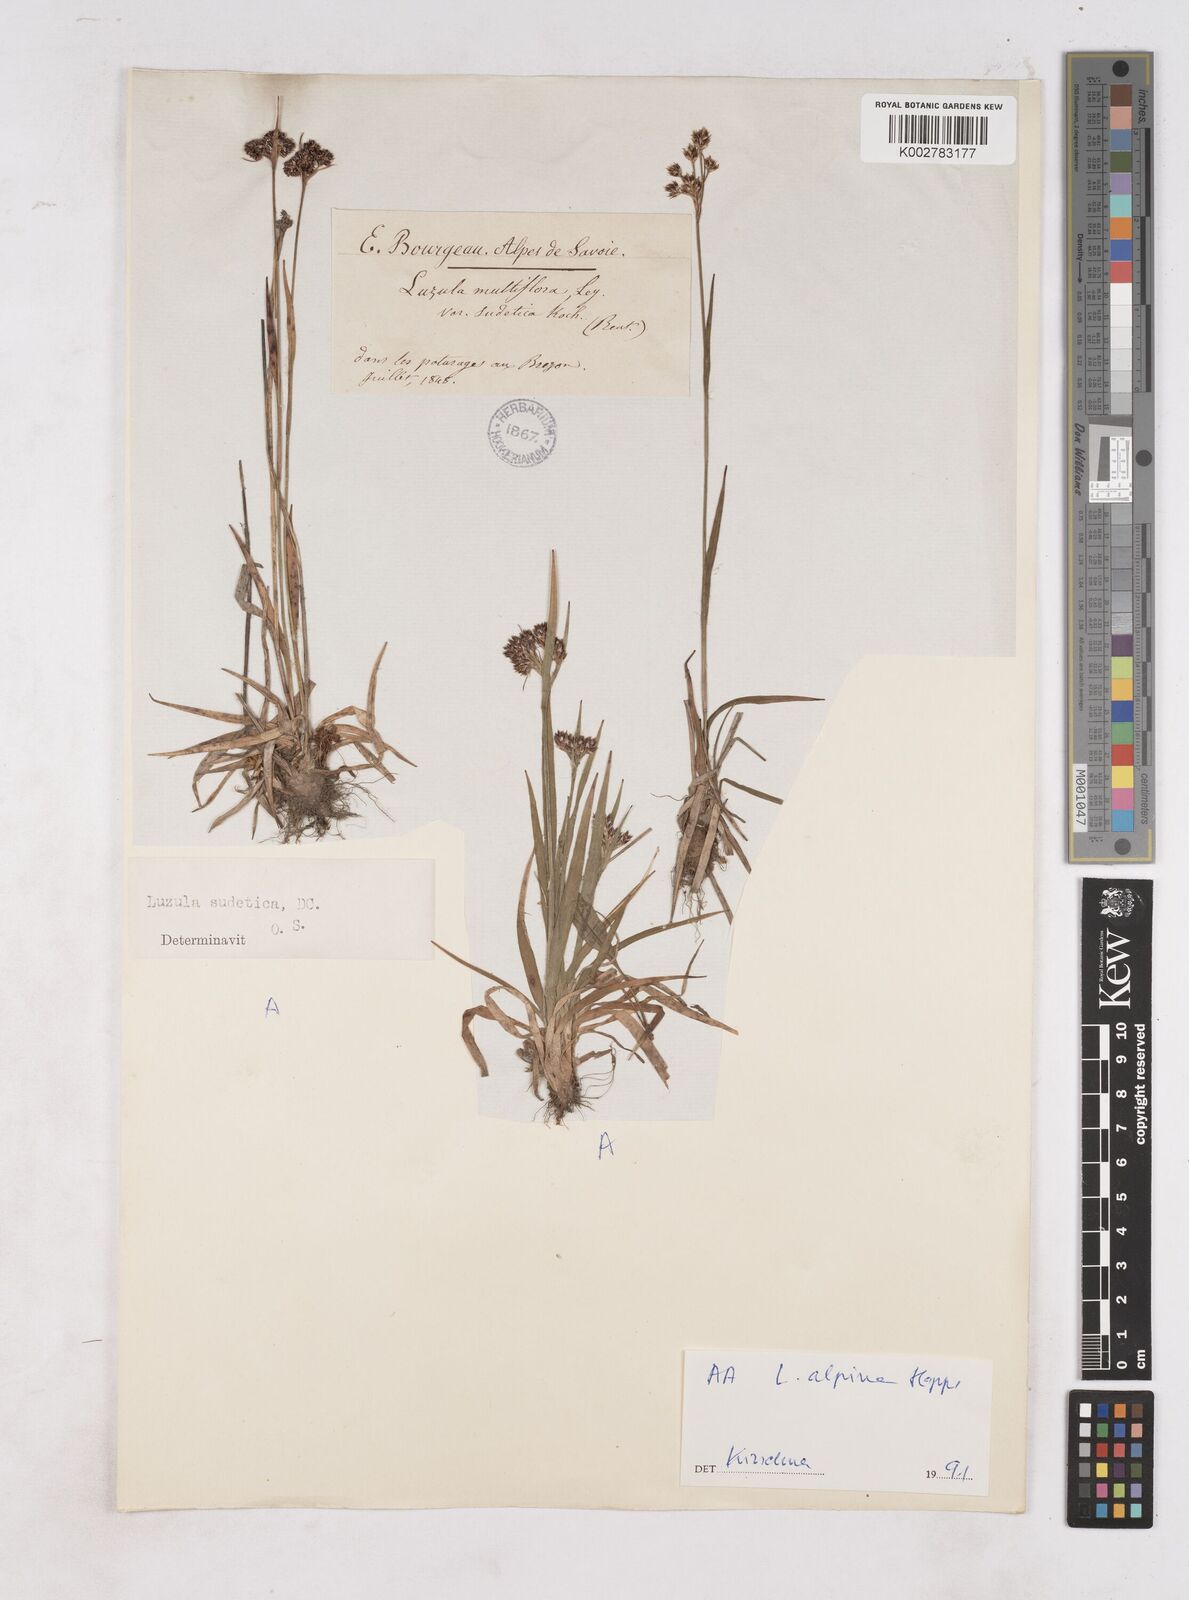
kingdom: Plantae
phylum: Tracheophyta
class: Liliopsida
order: Poales
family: Juncaceae
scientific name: Juncaceae
